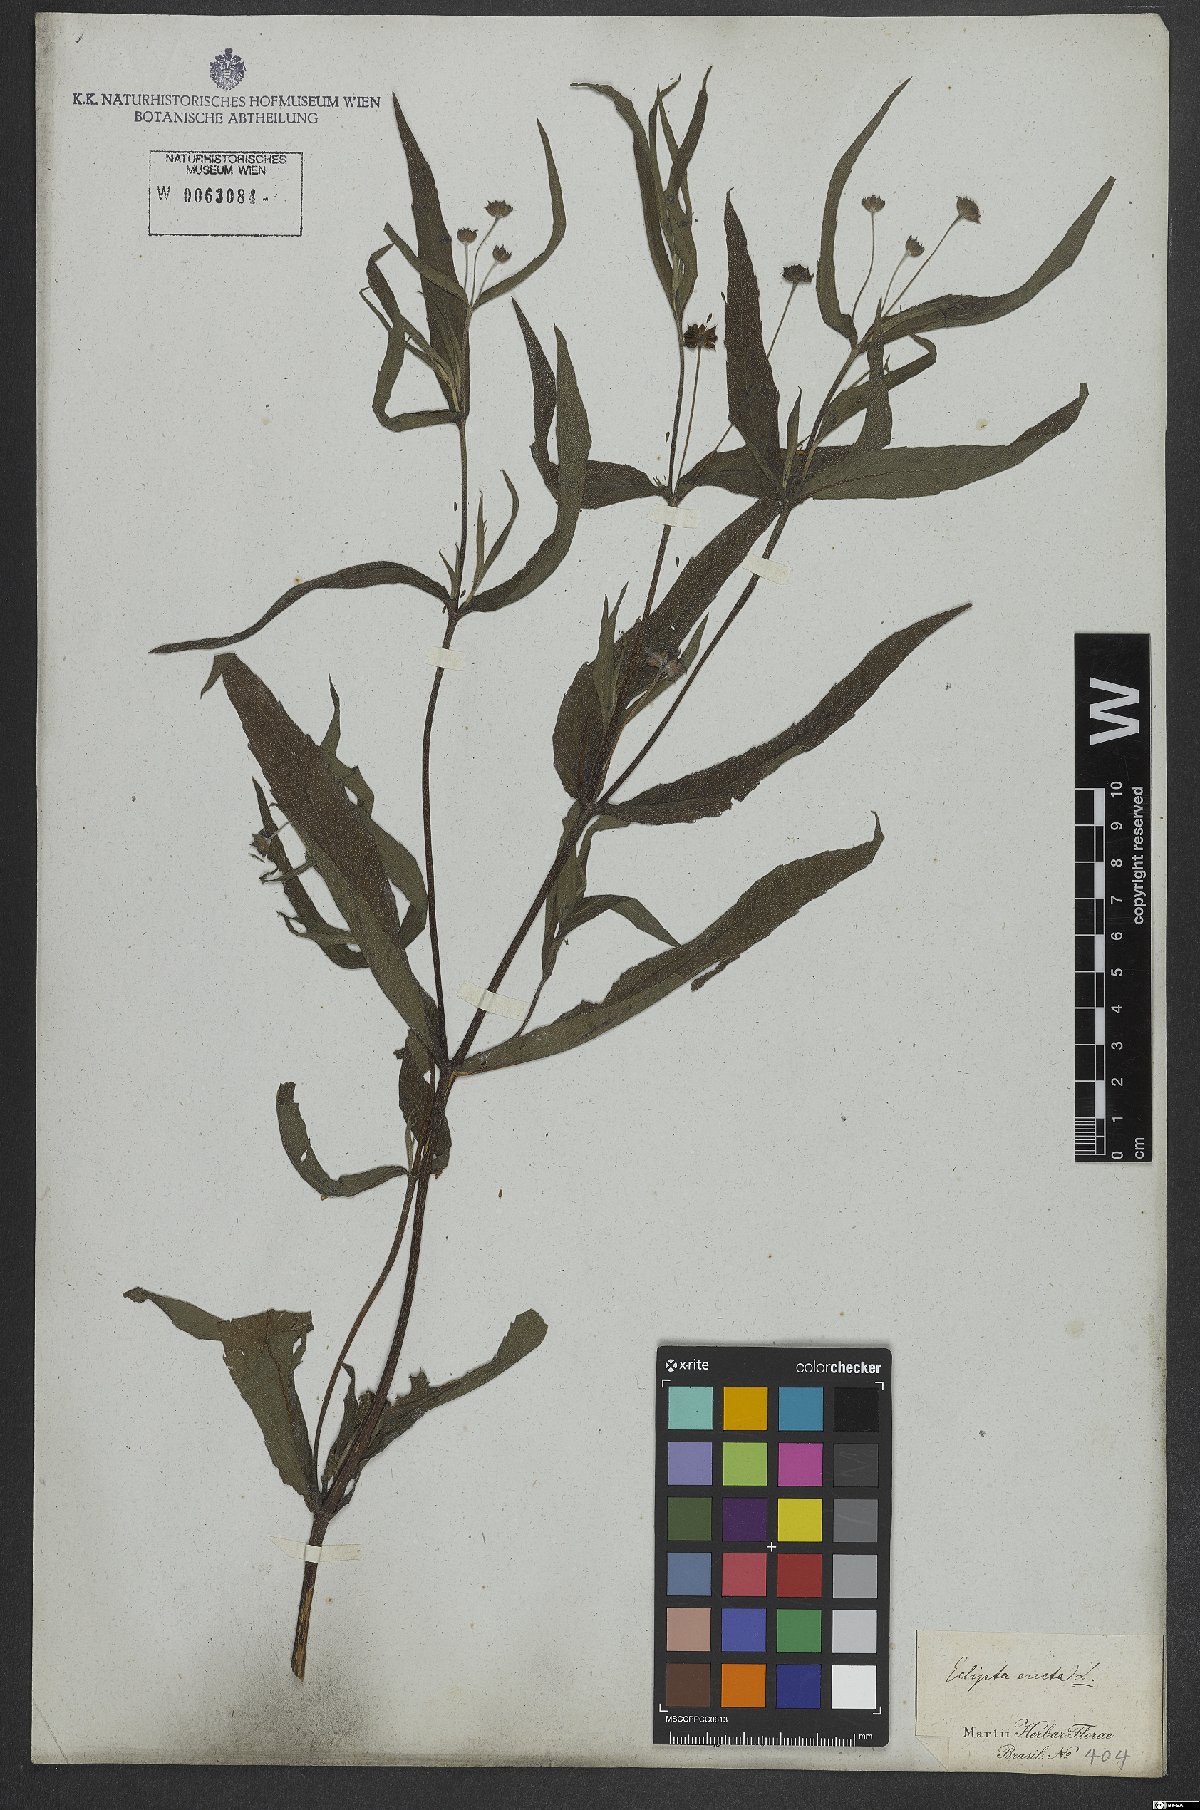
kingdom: Plantae
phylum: Tracheophyta
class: Magnoliopsida
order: Asterales
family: Asteraceae
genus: Eclipta
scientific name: Eclipta alba
